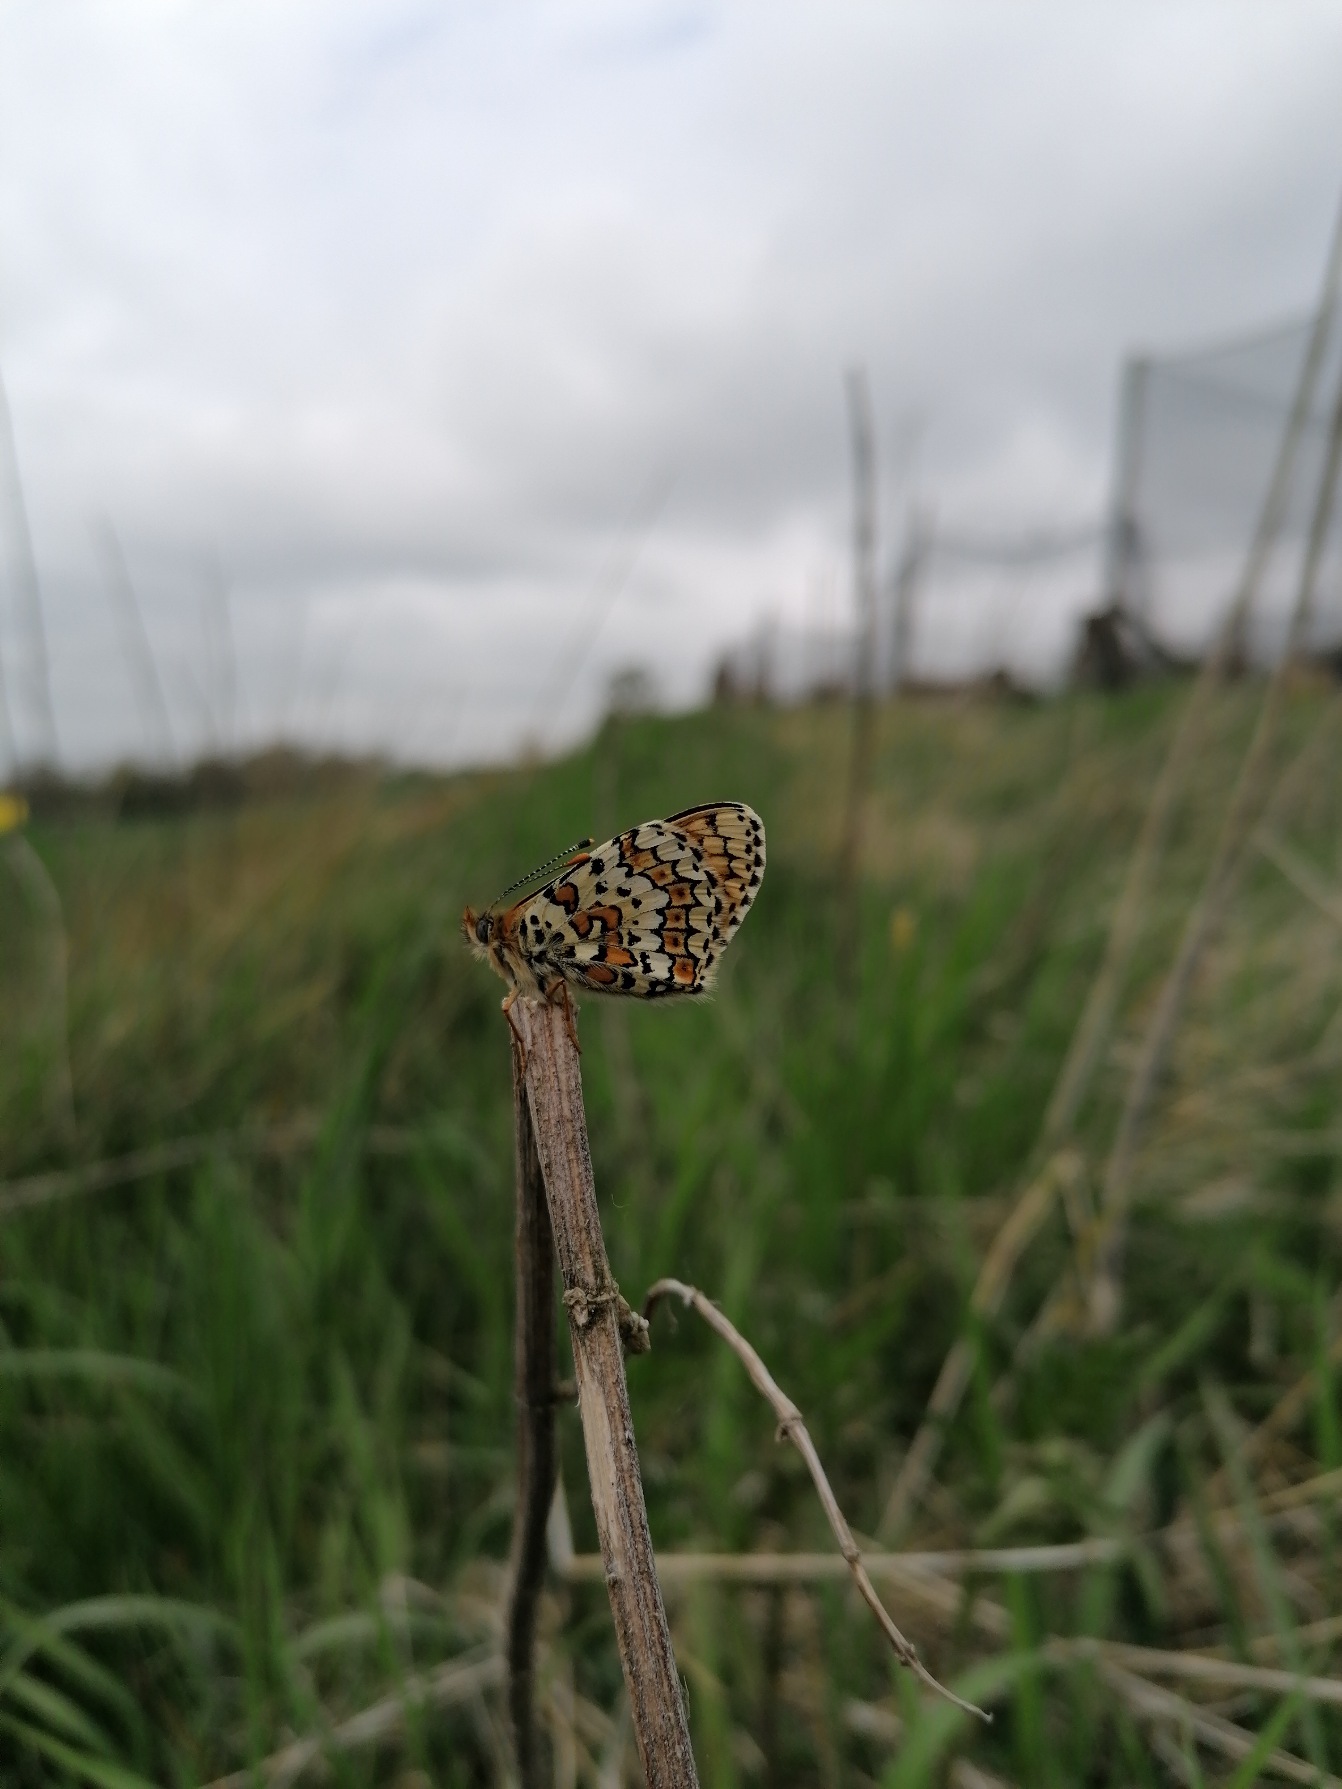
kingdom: Animalia
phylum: Arthropoda
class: Insecta
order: Lepidoptera
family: Nymphalidae
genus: Melitaea
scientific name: Melitaea cinxia
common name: Okkergul pletvinge
